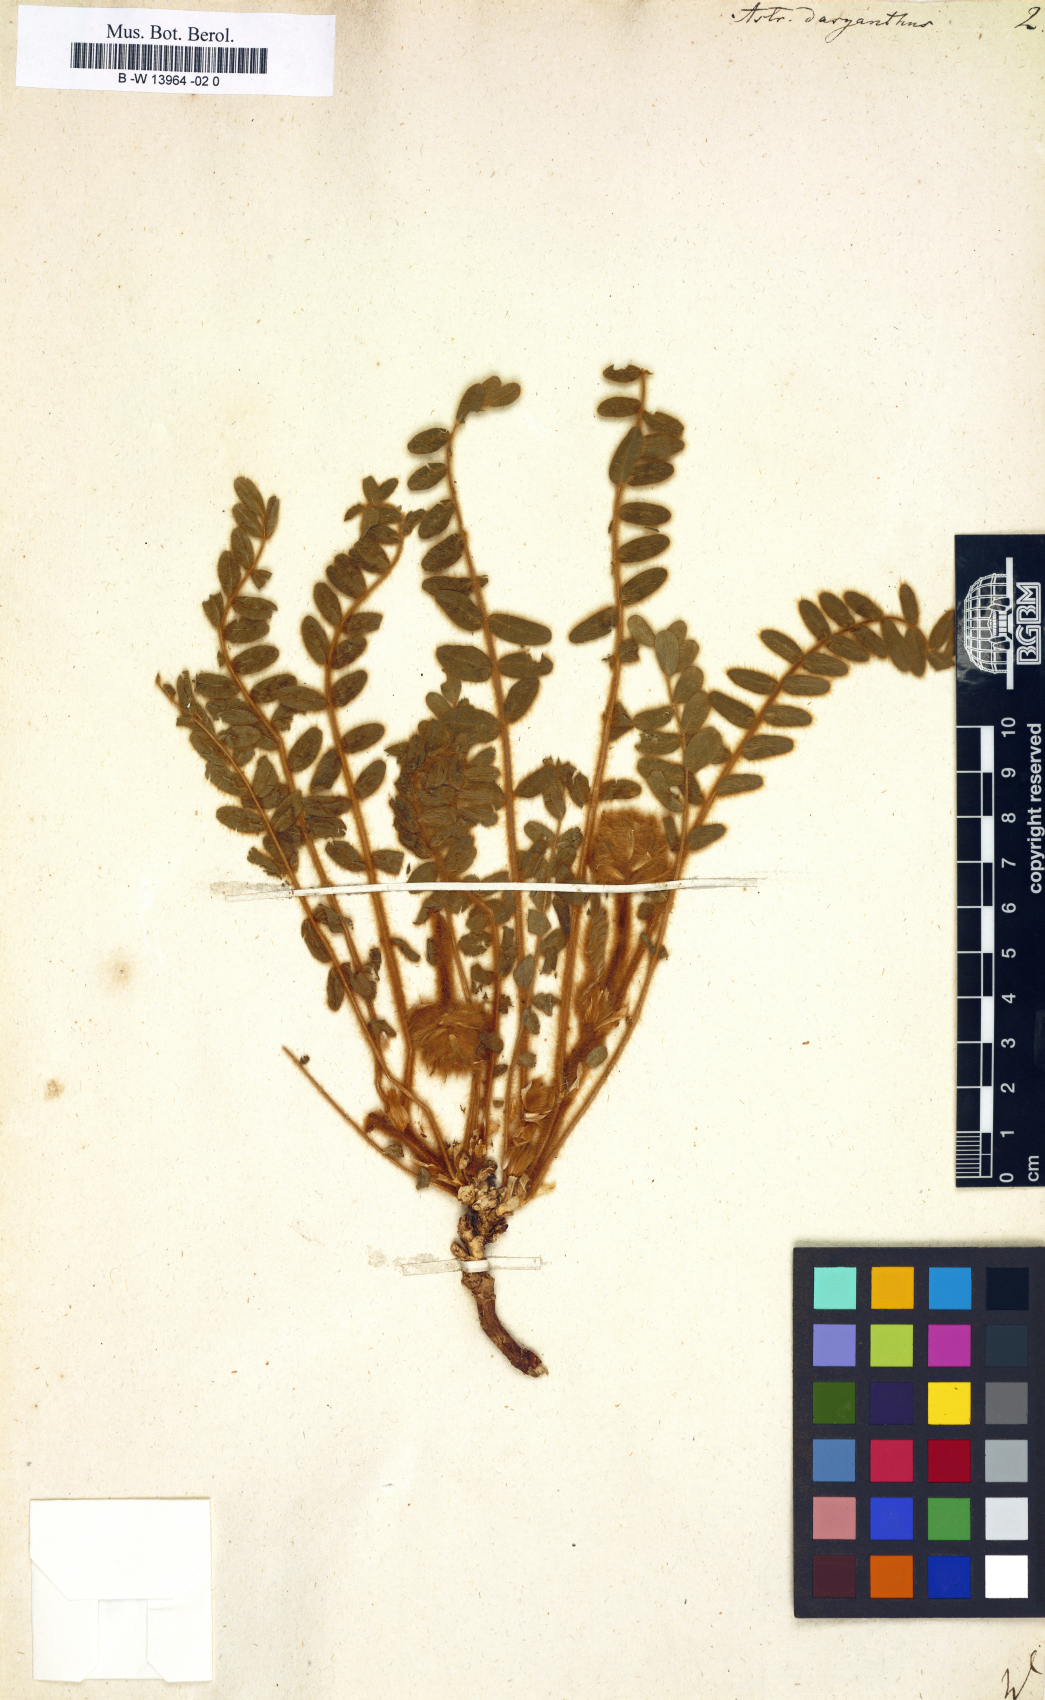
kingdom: Plantae
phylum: Tracheophyta
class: Magnoliopsida
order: Fabales
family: Fabaceae
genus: Astragalus
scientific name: Astragalus dasyanthus
